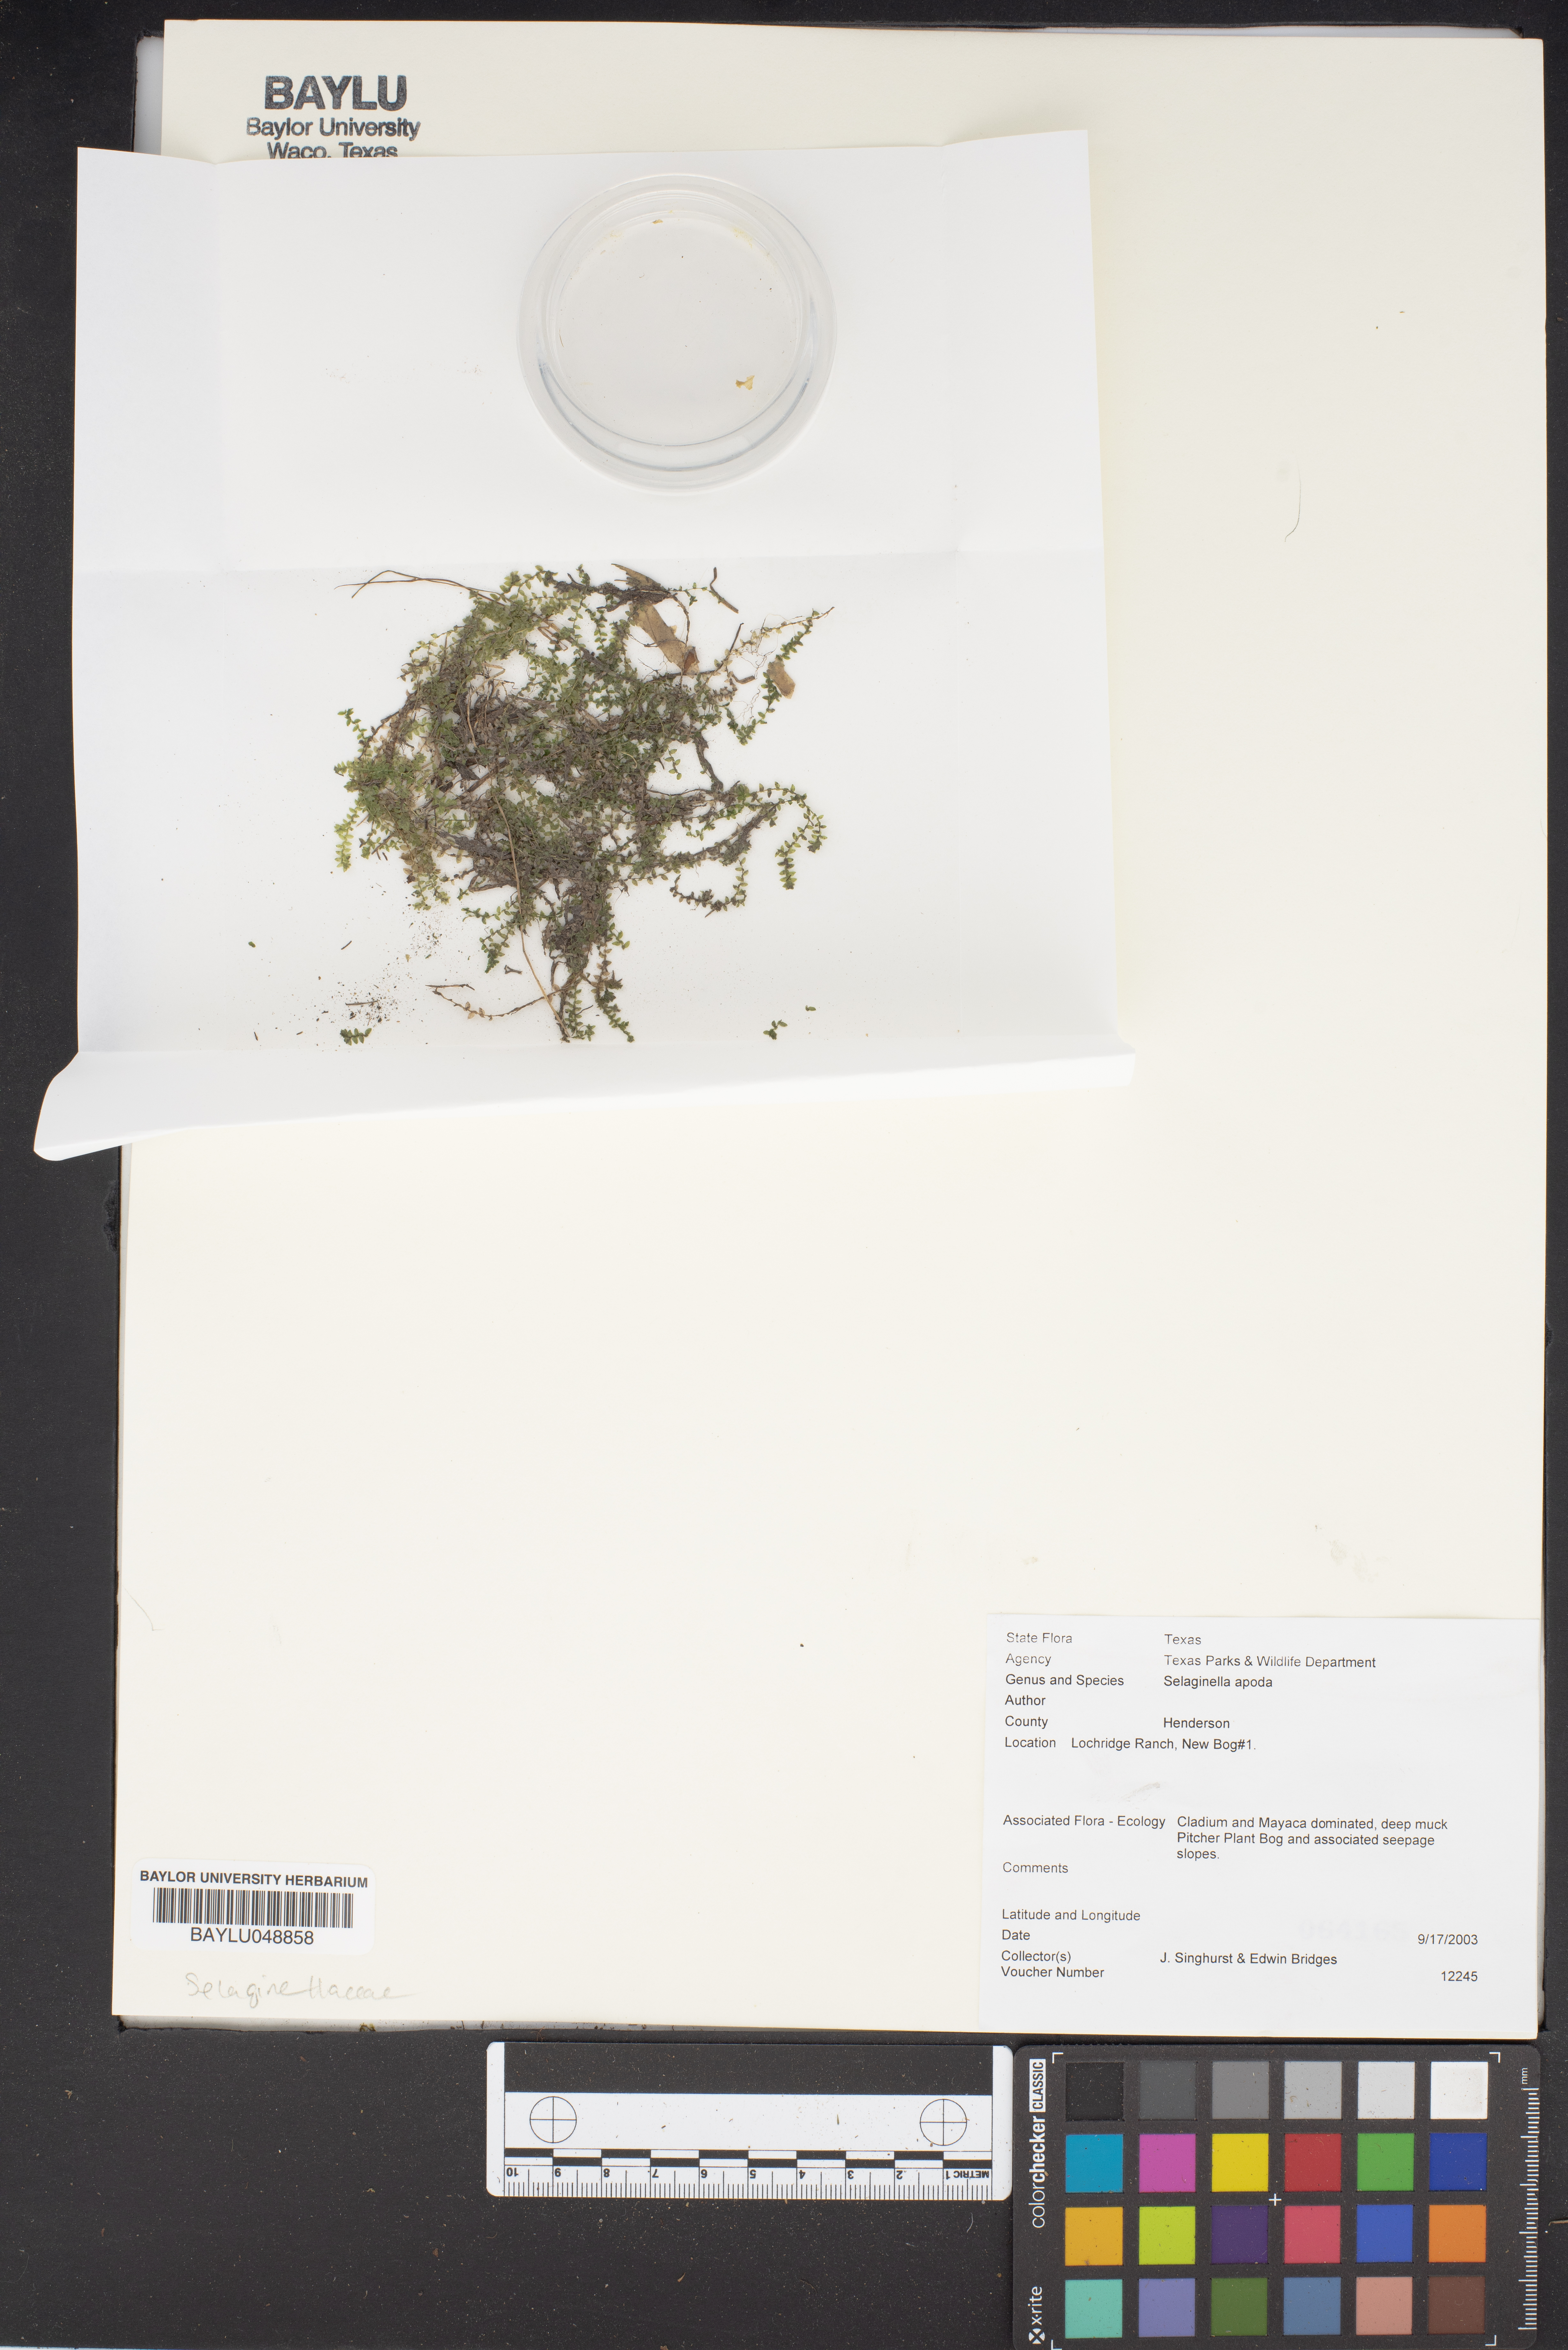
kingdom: Plantae
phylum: Tracheophyta
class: Lycopodiopsida
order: Selaginellales
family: Selaginellaceae
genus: Selaginella
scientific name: Selaginella apoda
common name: Creeping spikemoss
